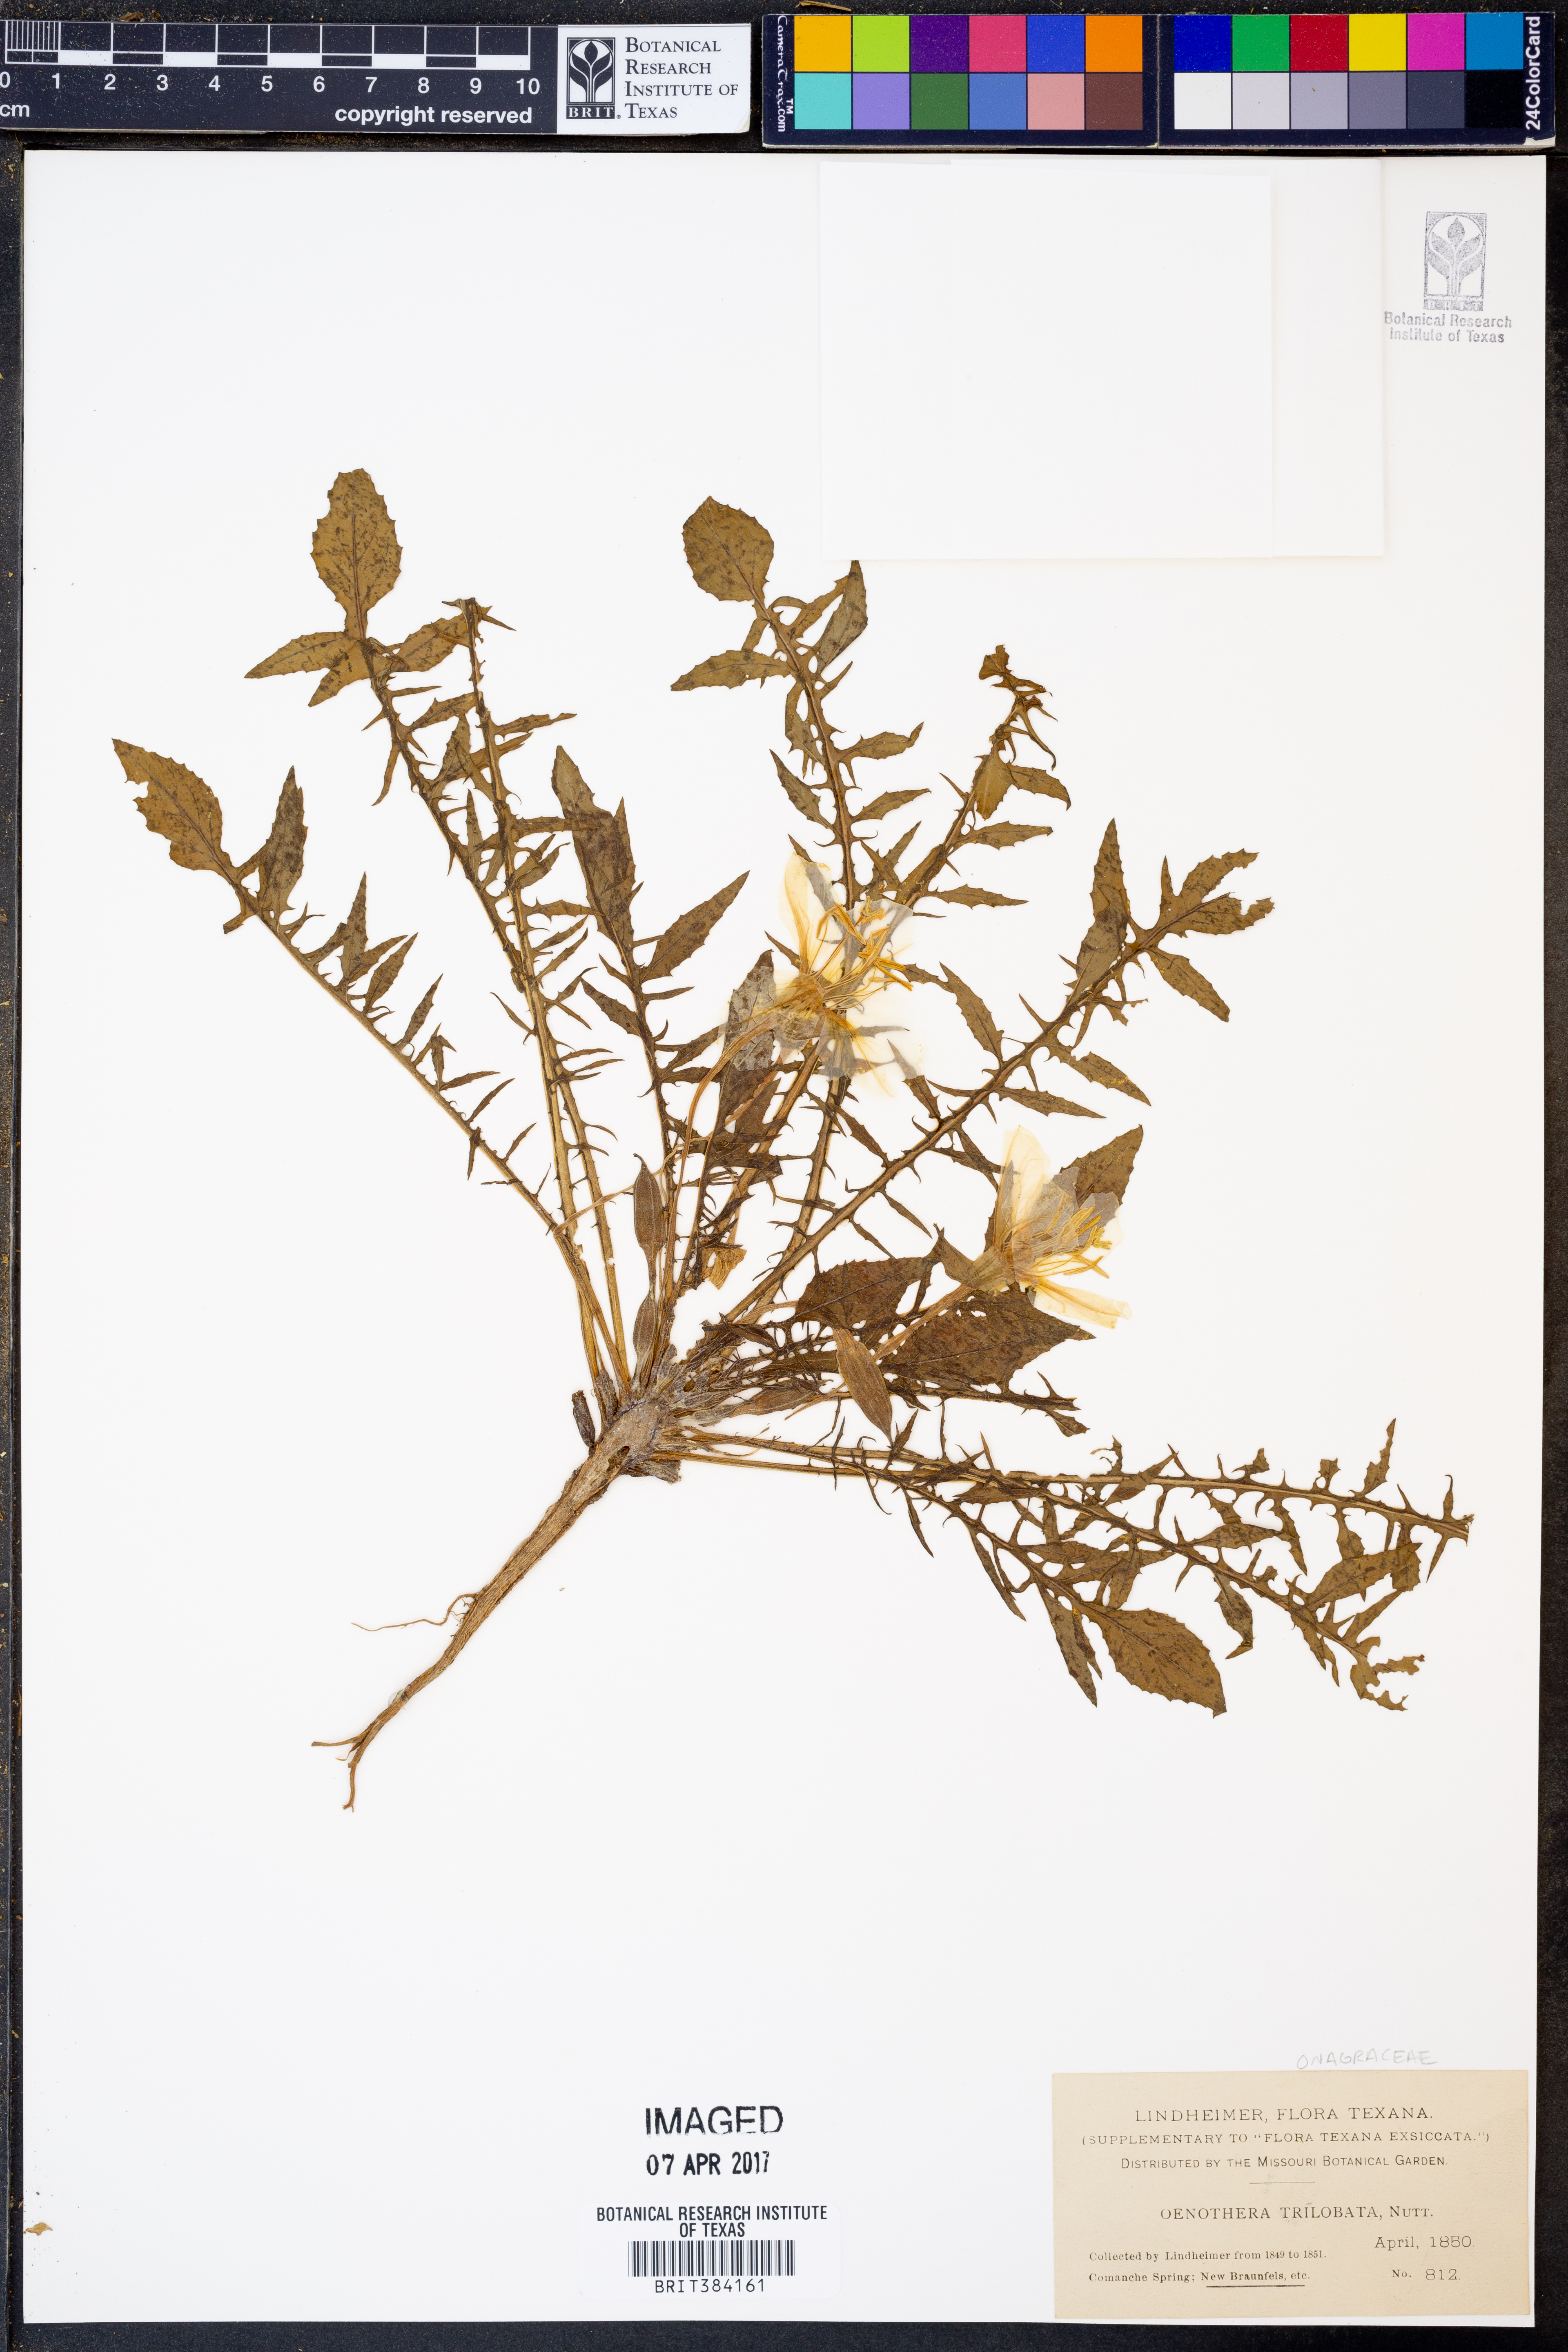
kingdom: Plantae
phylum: Tracheophyta
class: Magnoliopsida
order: Myrtales
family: Onagraceae
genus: Oenothera
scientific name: Oenothera triloba
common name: Sessile evening-primrose
